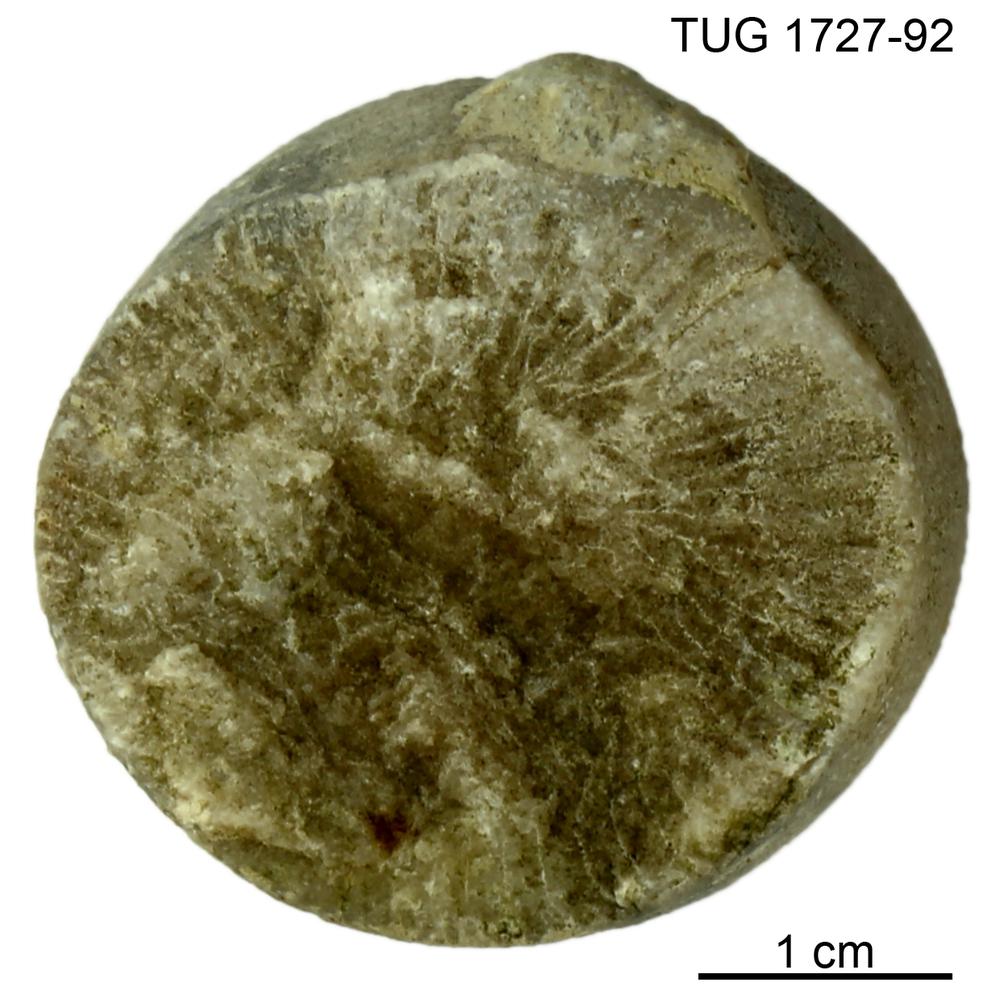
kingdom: Animalia
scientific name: Animalia
